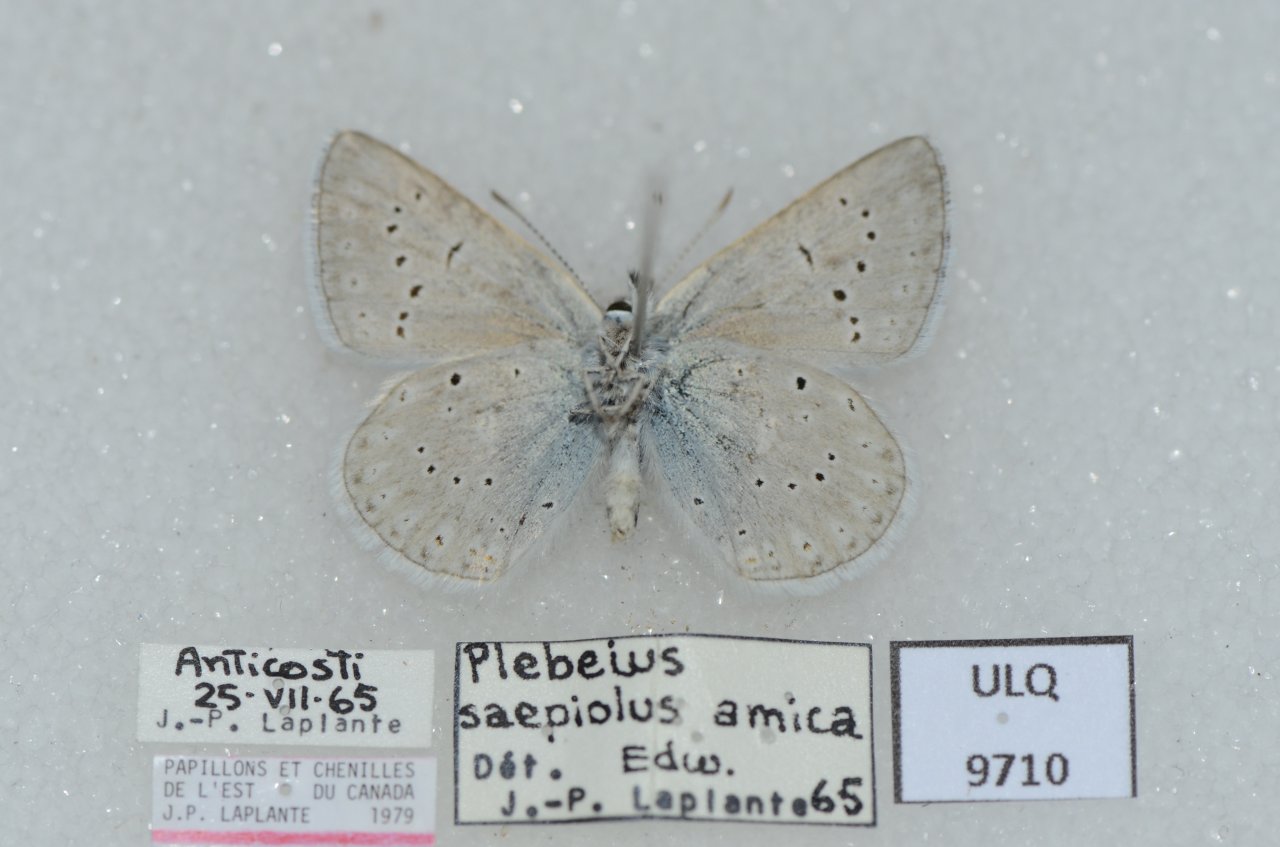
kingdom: Animalia
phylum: Arthropoda
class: Insecta
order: Lepidoptera
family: Lycaenidae
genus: Plebejus
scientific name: Plebejus saepiolus
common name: Greenish Blue
